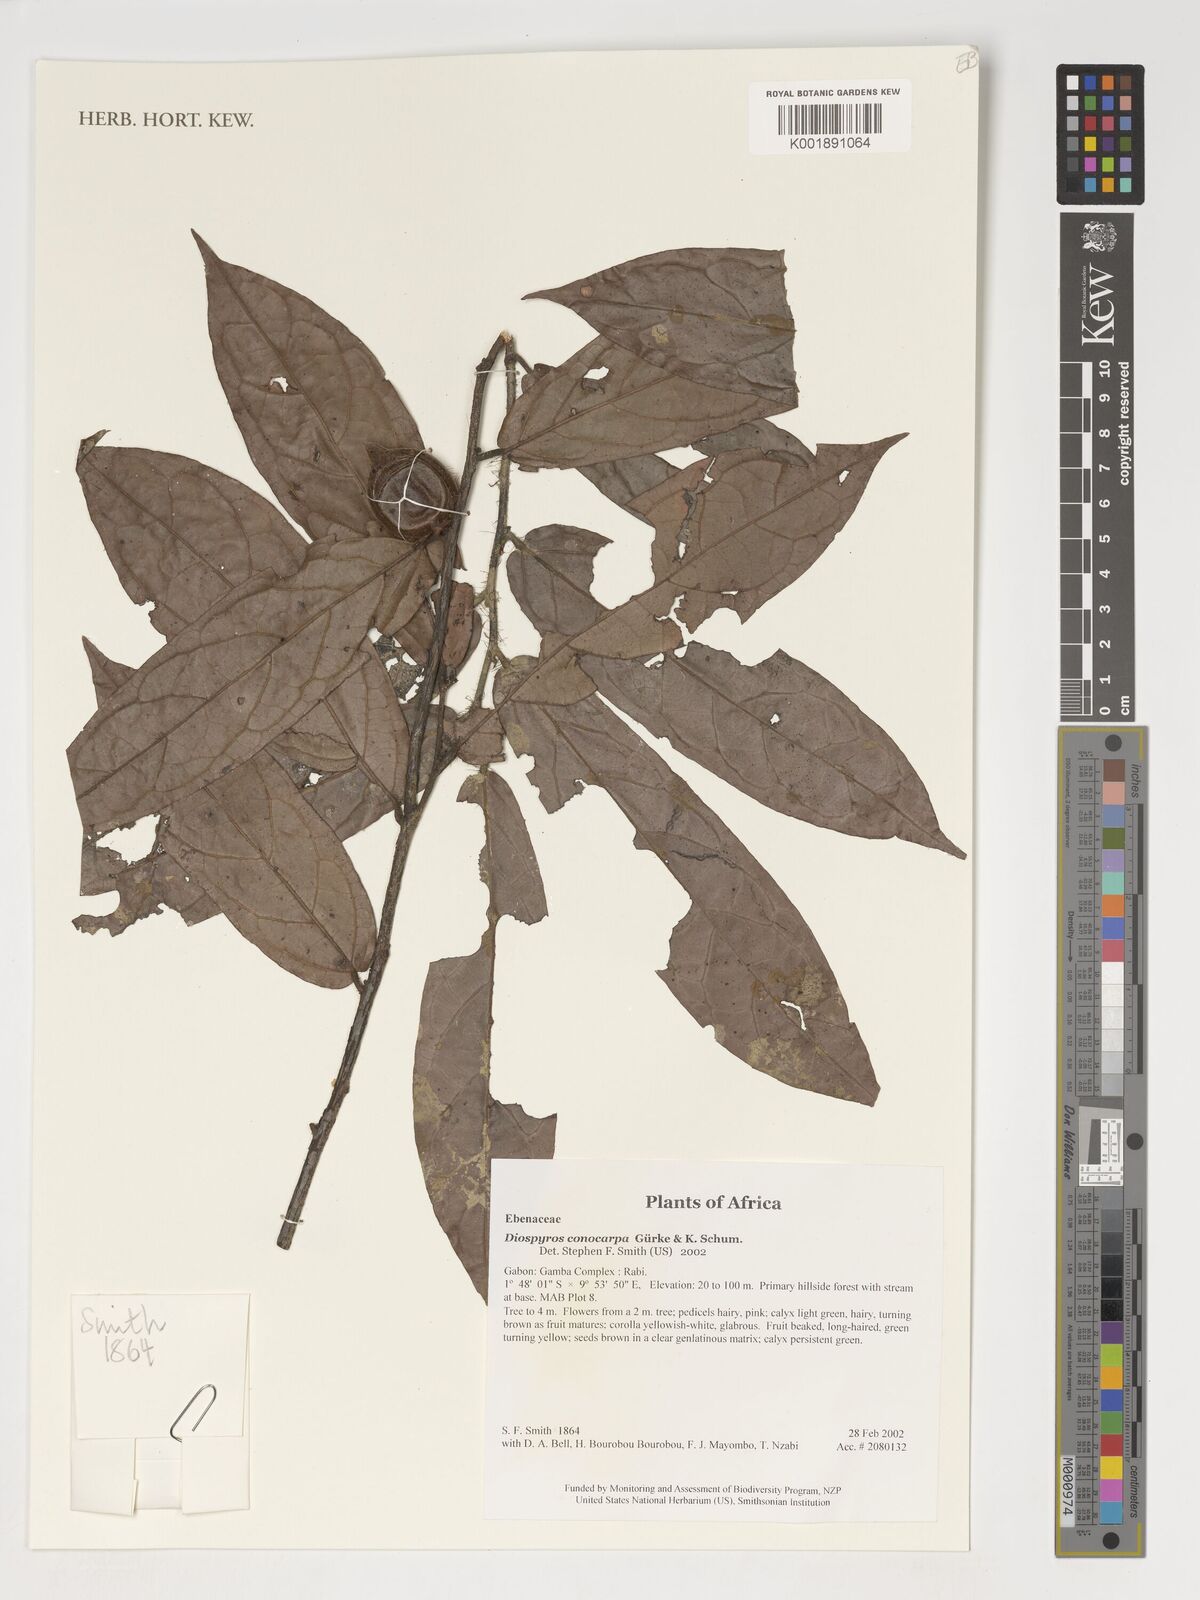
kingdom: Plantae
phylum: Tracheophyta
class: Magnoliopsida
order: Ericales
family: Ebenaceae
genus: Diospyros
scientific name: Diospyros conocarpa
